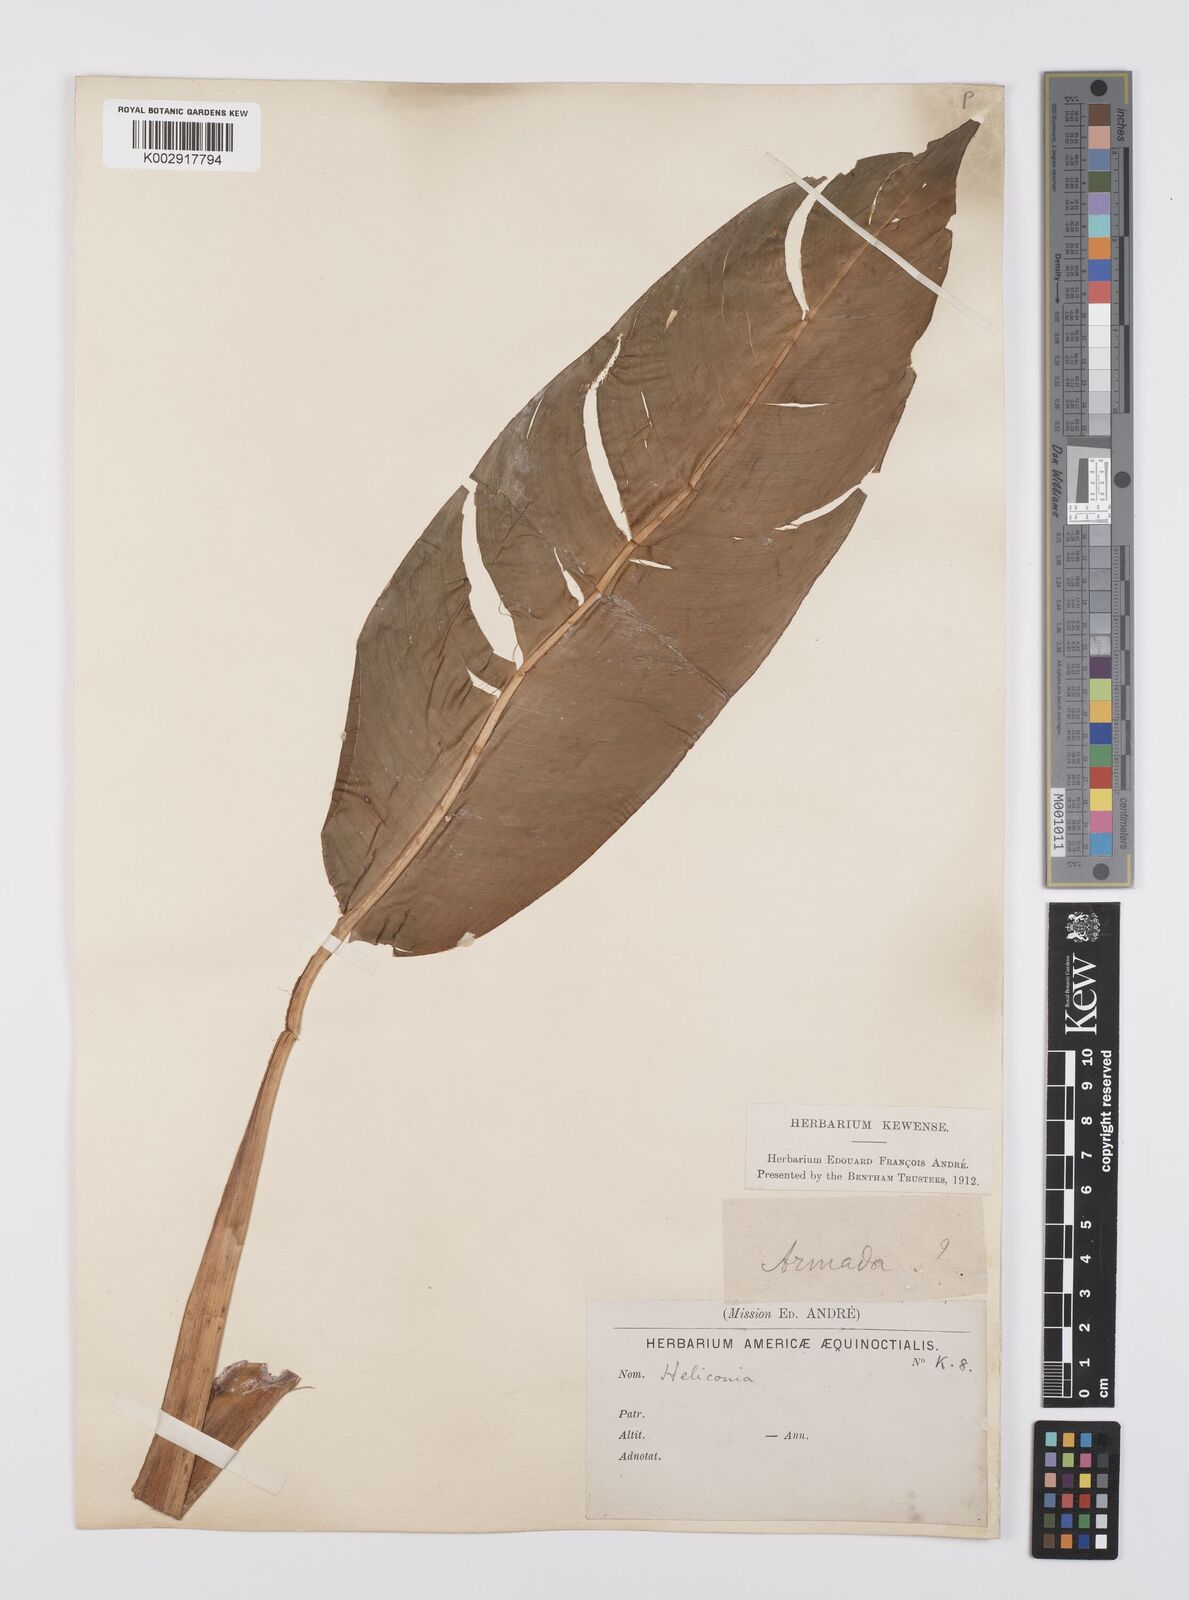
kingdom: Plantae
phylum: Tracheophyta
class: Liliopsida
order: Zingiberales
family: Heliconiaceae
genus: Heliconia
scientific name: Heliconia
